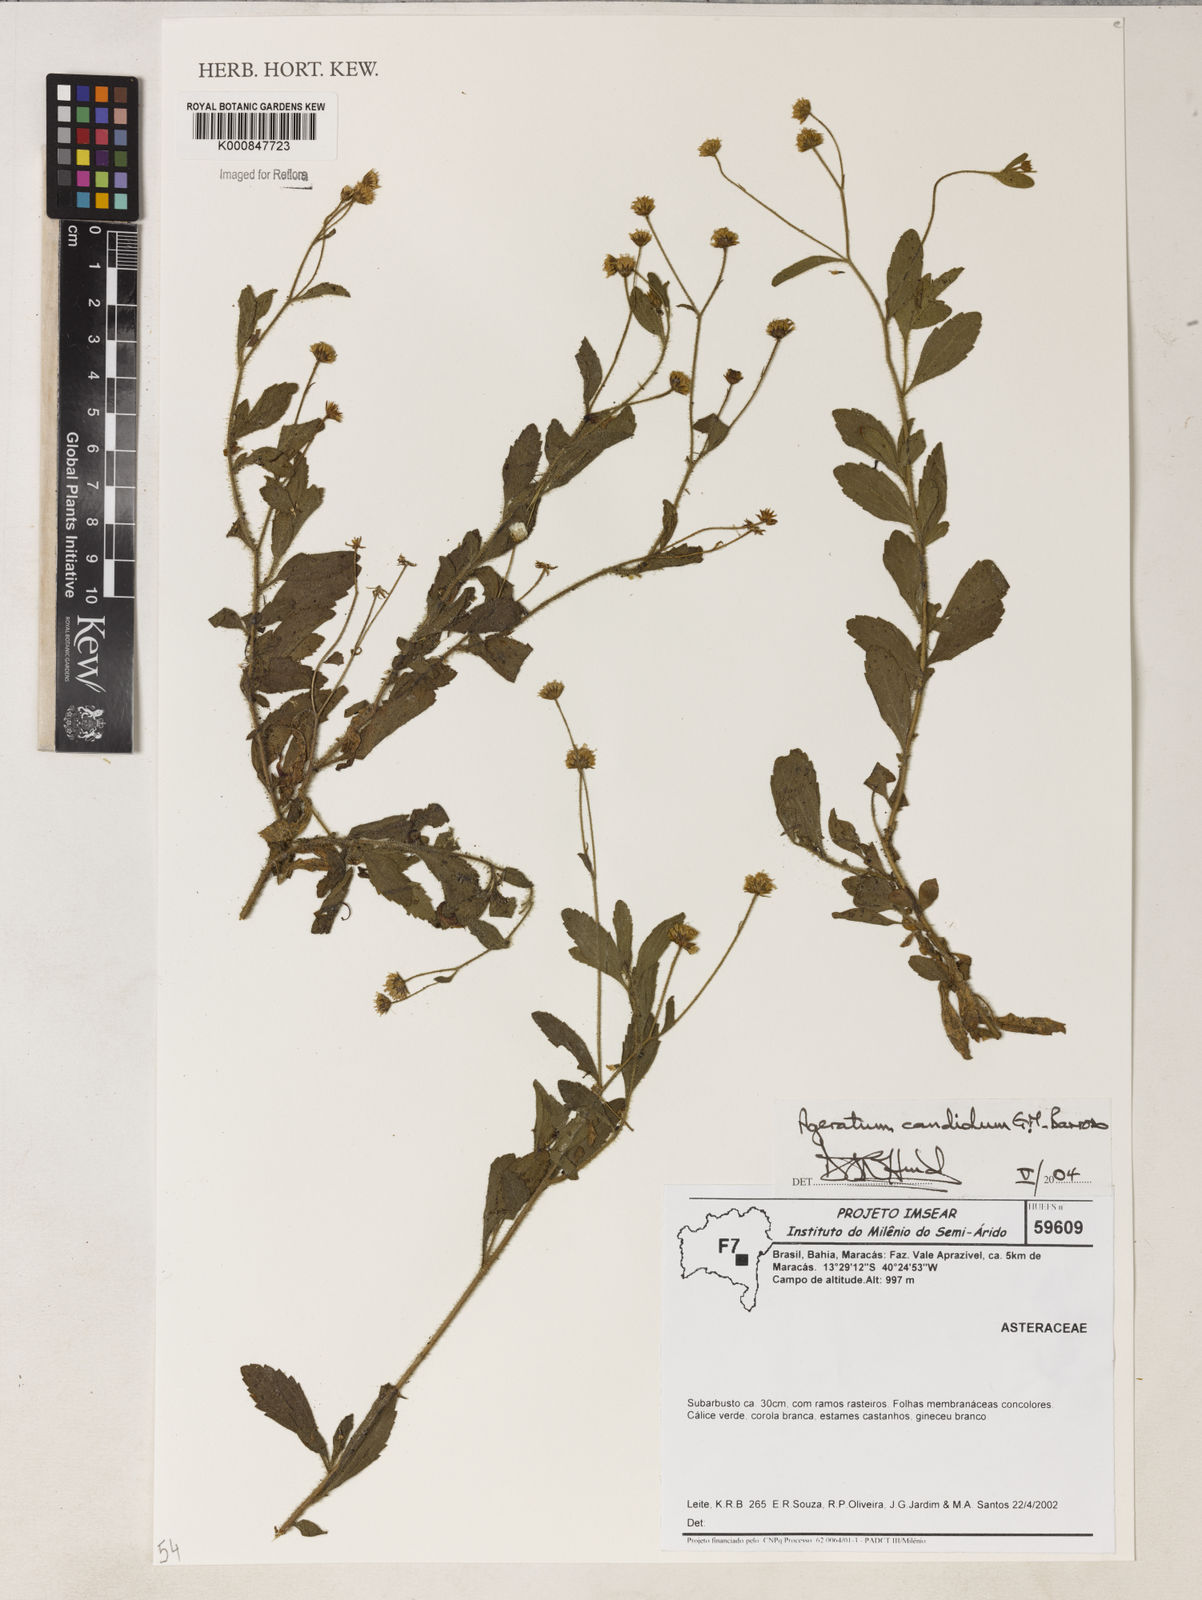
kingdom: Plantae
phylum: Tracheophyta
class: Magnoliopsida
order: Asterales
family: Asteraceae
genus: Ageratum
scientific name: Ageratum candidum
